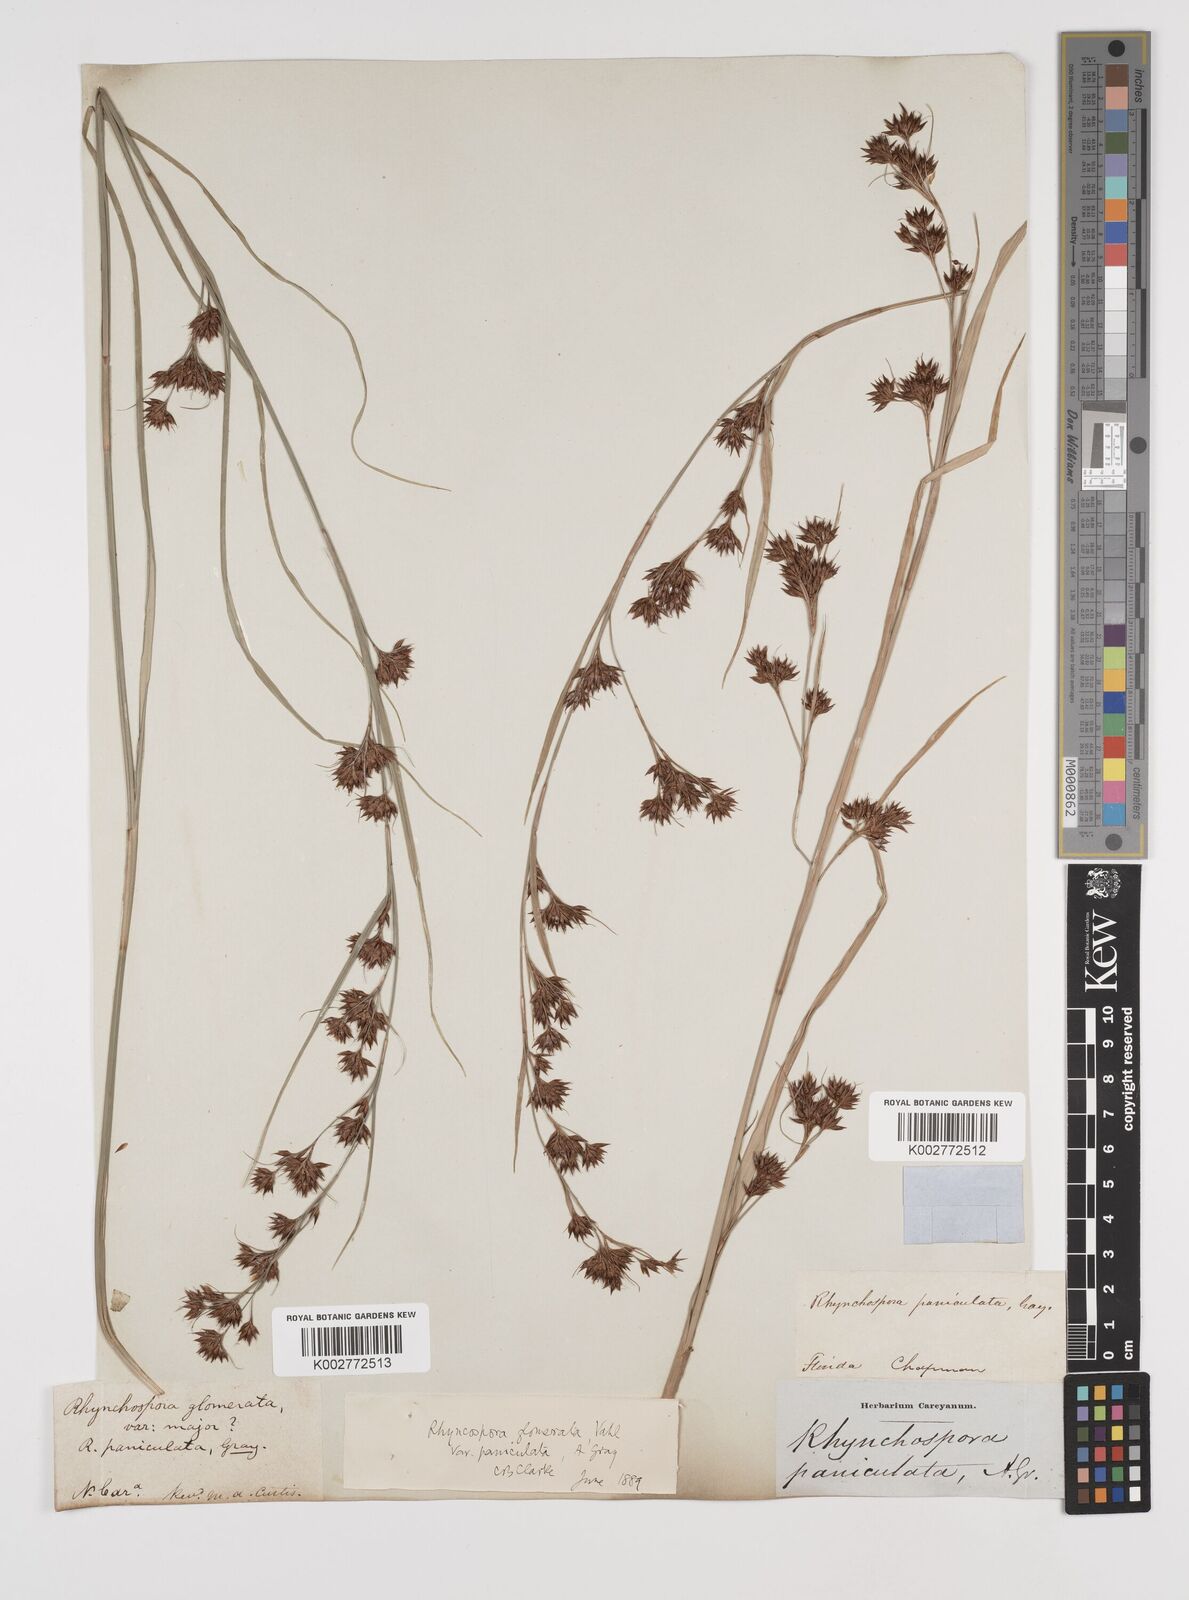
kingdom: Plantae
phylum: Tracheophyta
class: Liliopsida
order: Poales
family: Cyperaceae
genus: Rhynchospora
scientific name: Rhynchospora glomerata
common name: Cluster beak sedge
